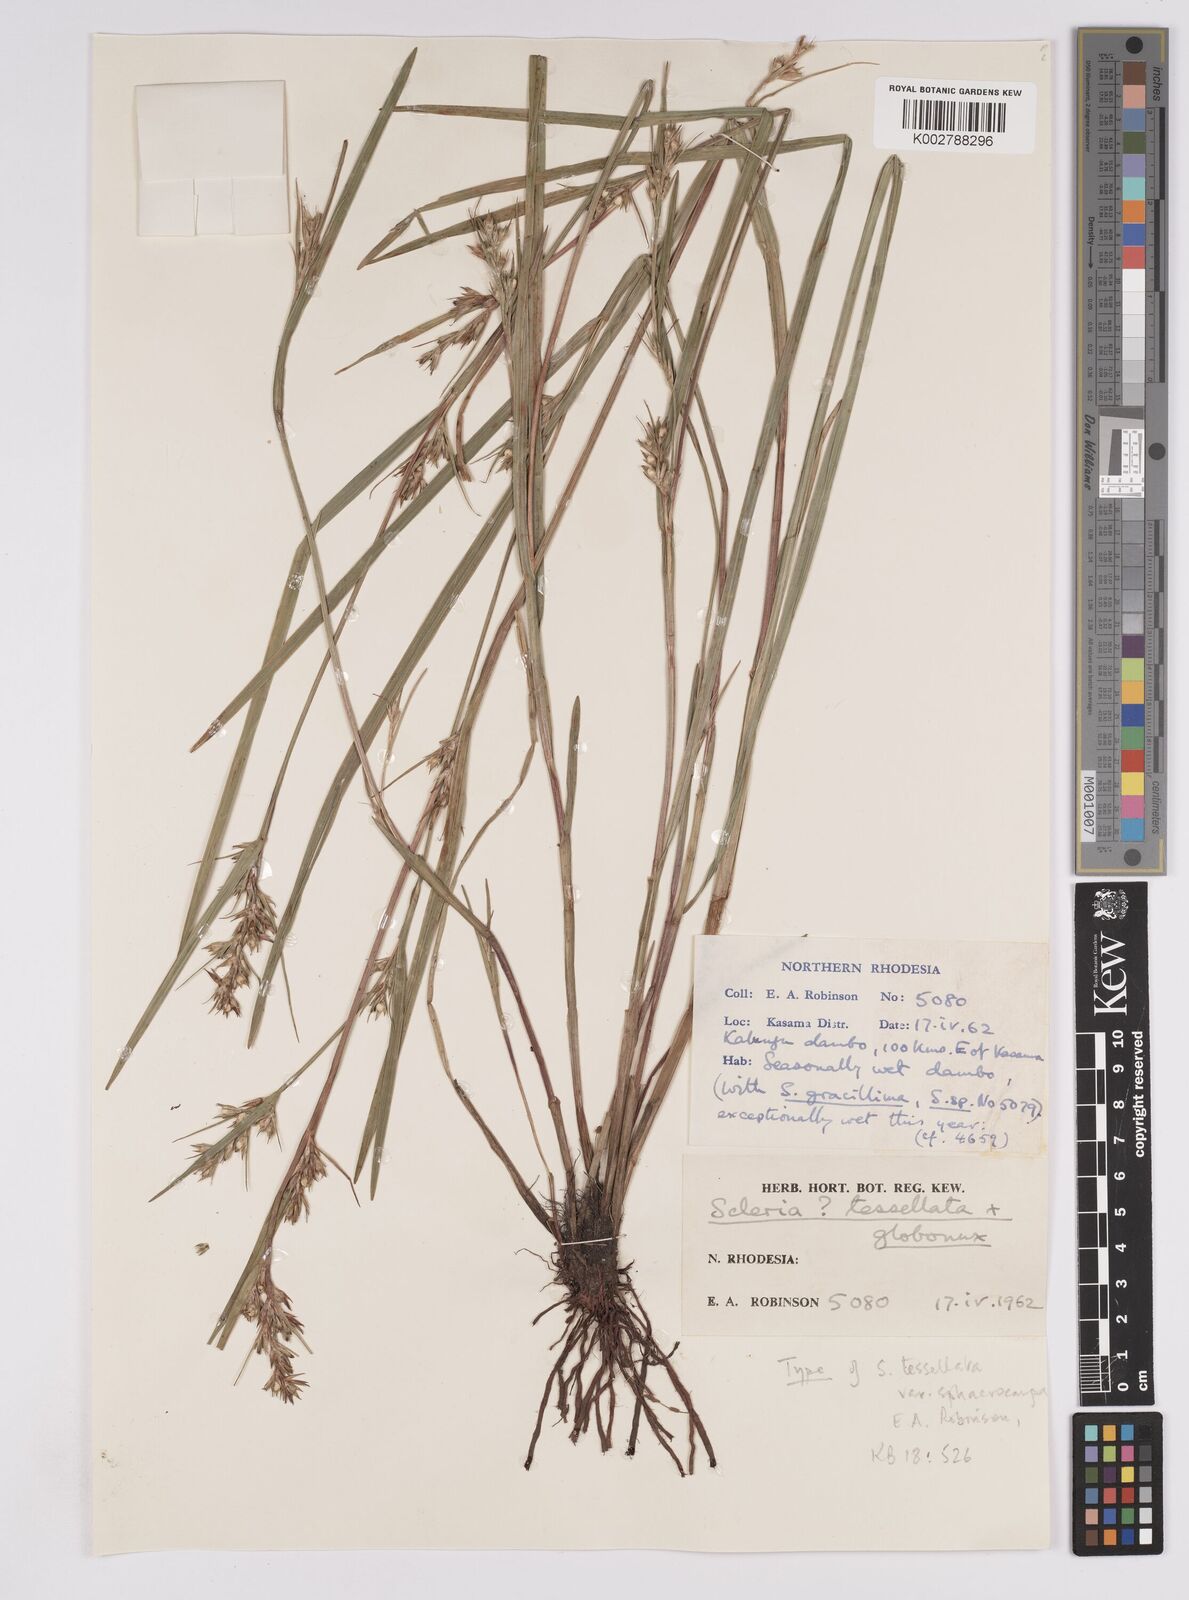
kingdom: Plantae
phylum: Tracheophyta
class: Liliopsida
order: Poales
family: Cyperaceae
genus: Scleria
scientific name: Scleria
